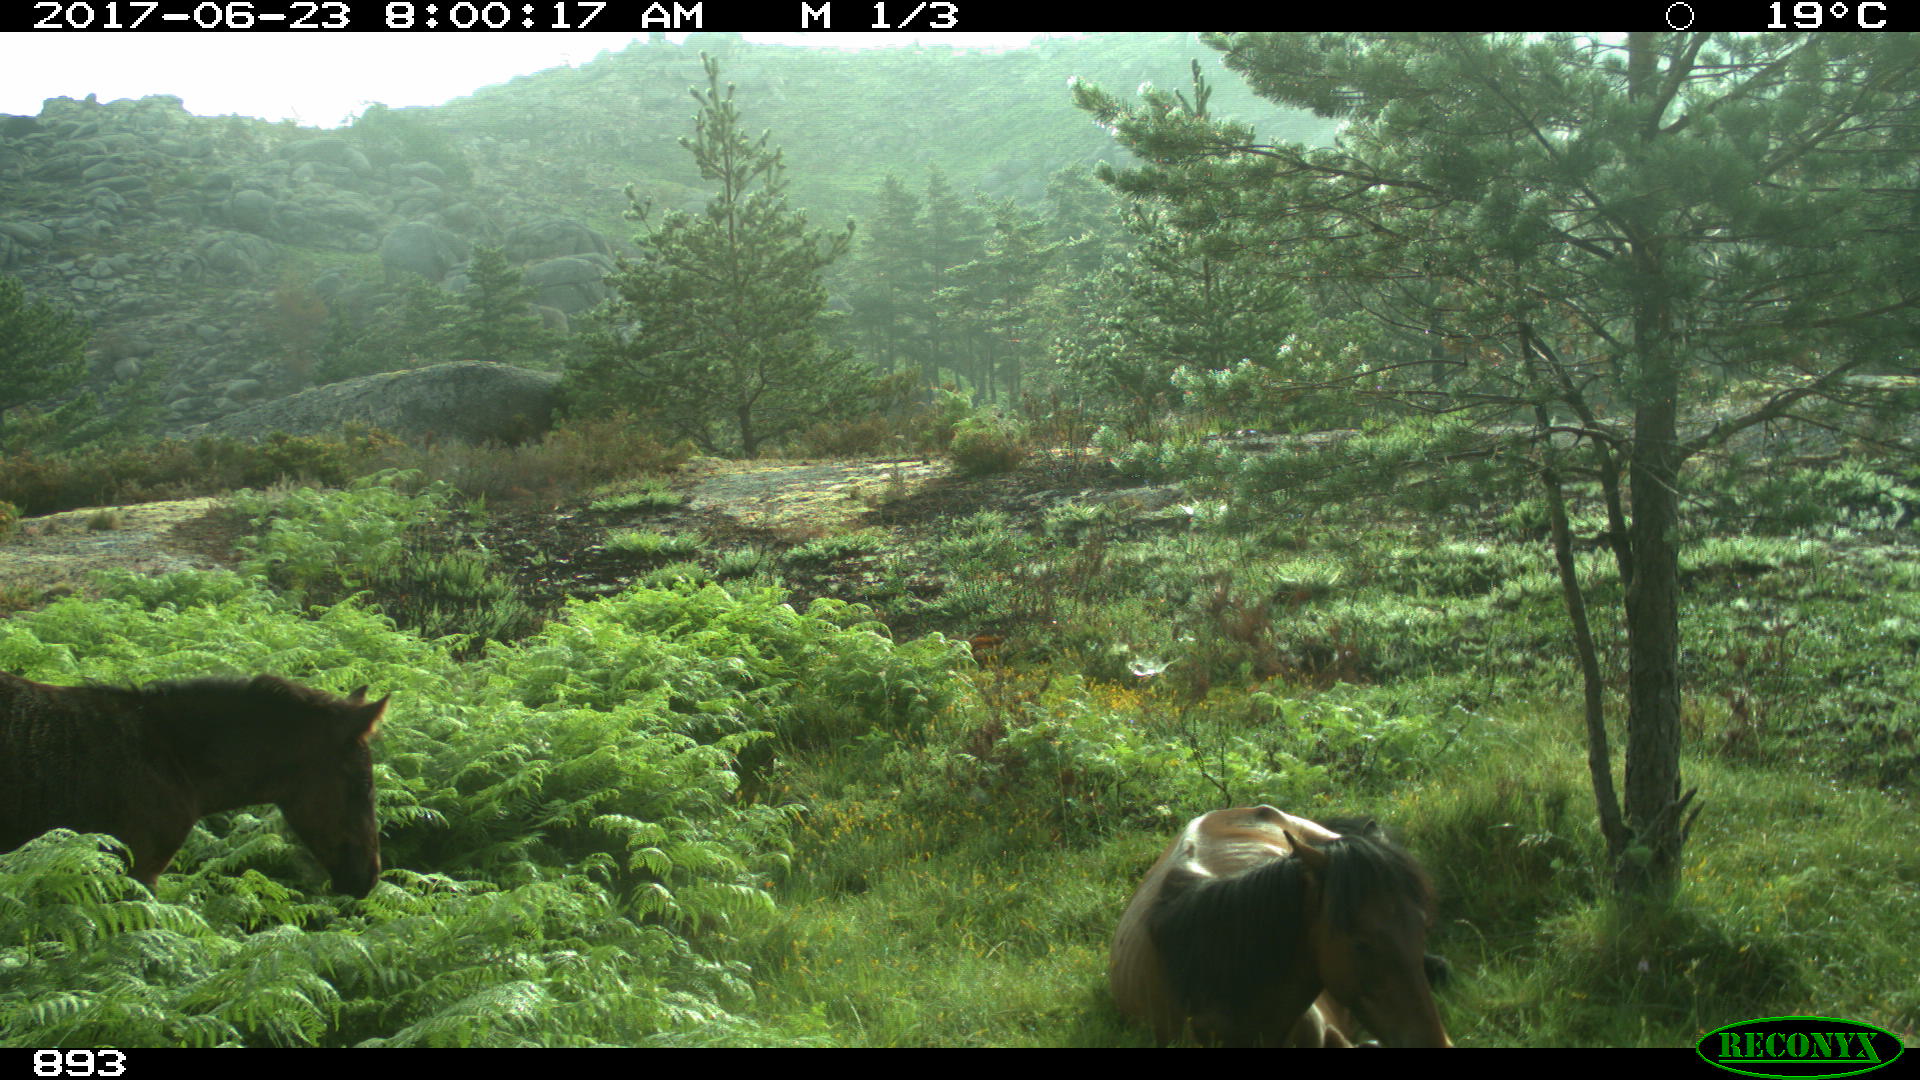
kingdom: Animalia
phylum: Chordata
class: Mammalia
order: Perissodactyla
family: Equidae
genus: Equus
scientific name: Equus caballus
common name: Horse
